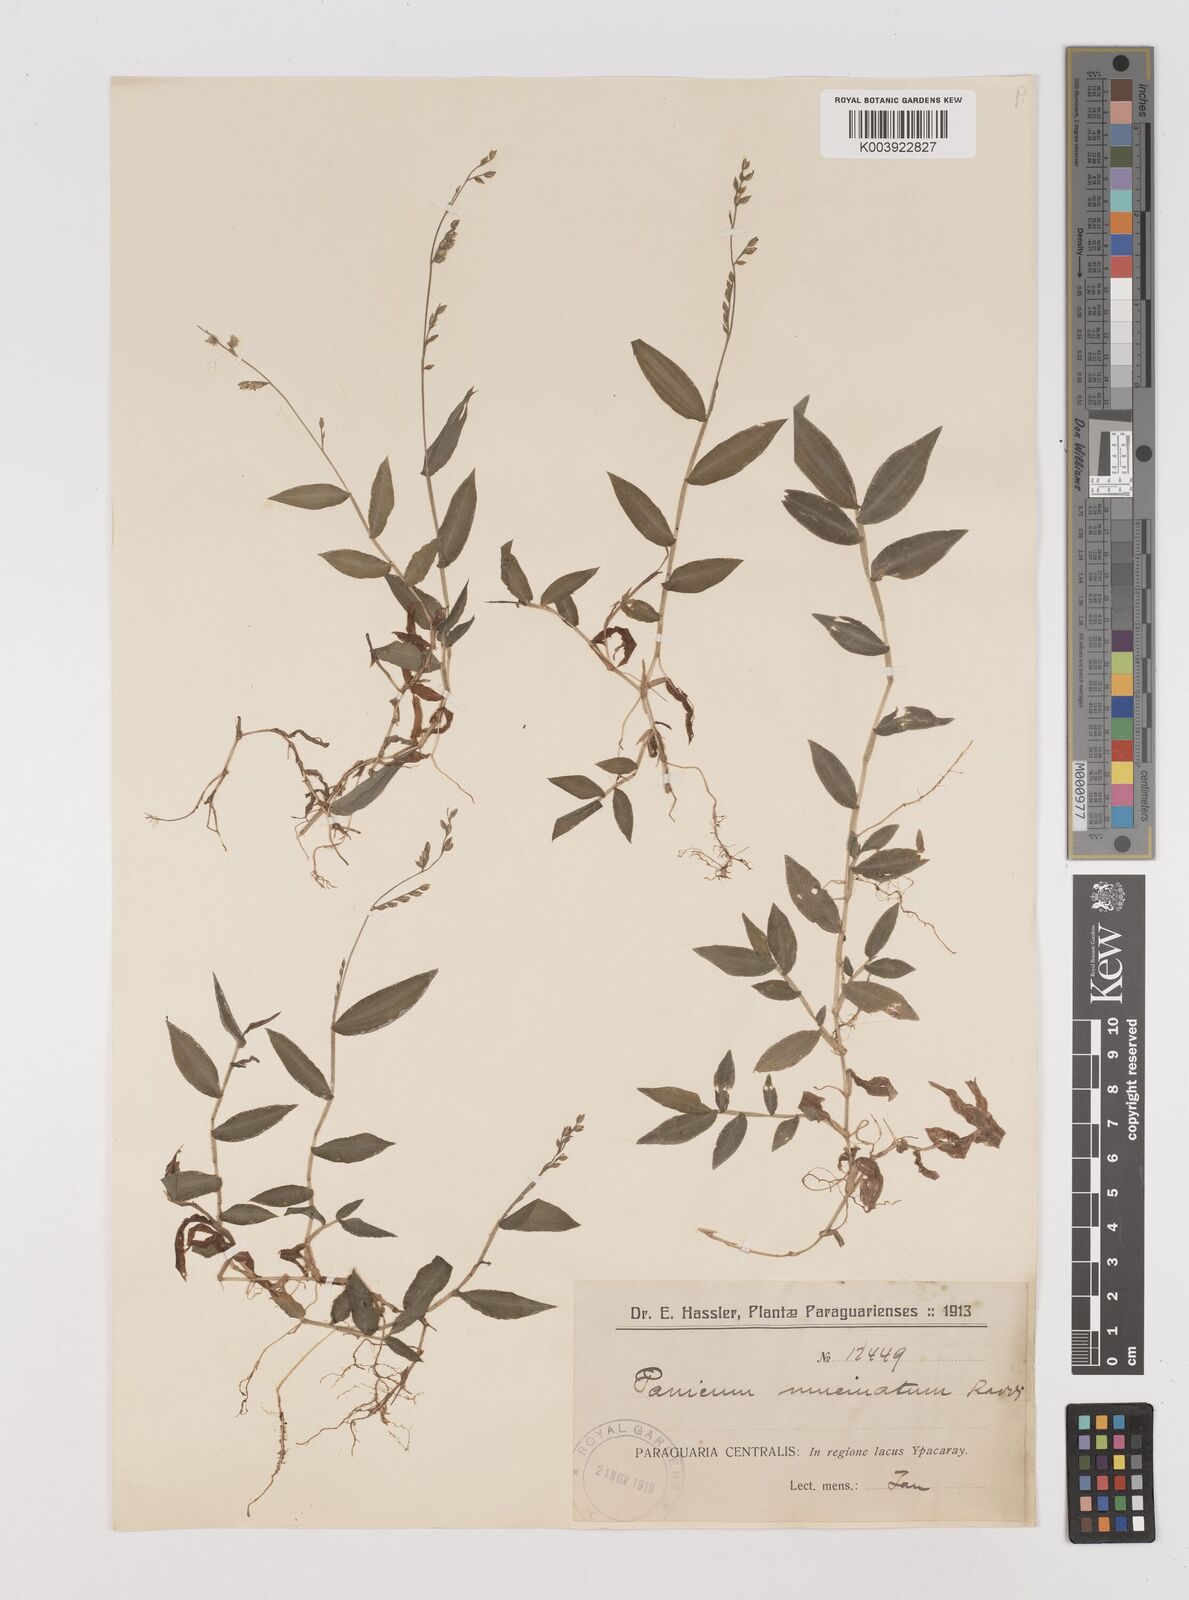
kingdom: Plantae
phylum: Tracheophyta
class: Liliopsida
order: Poales
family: Poaceae
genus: Pseudechinolaena
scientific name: Pseudechinolaena polystachya
